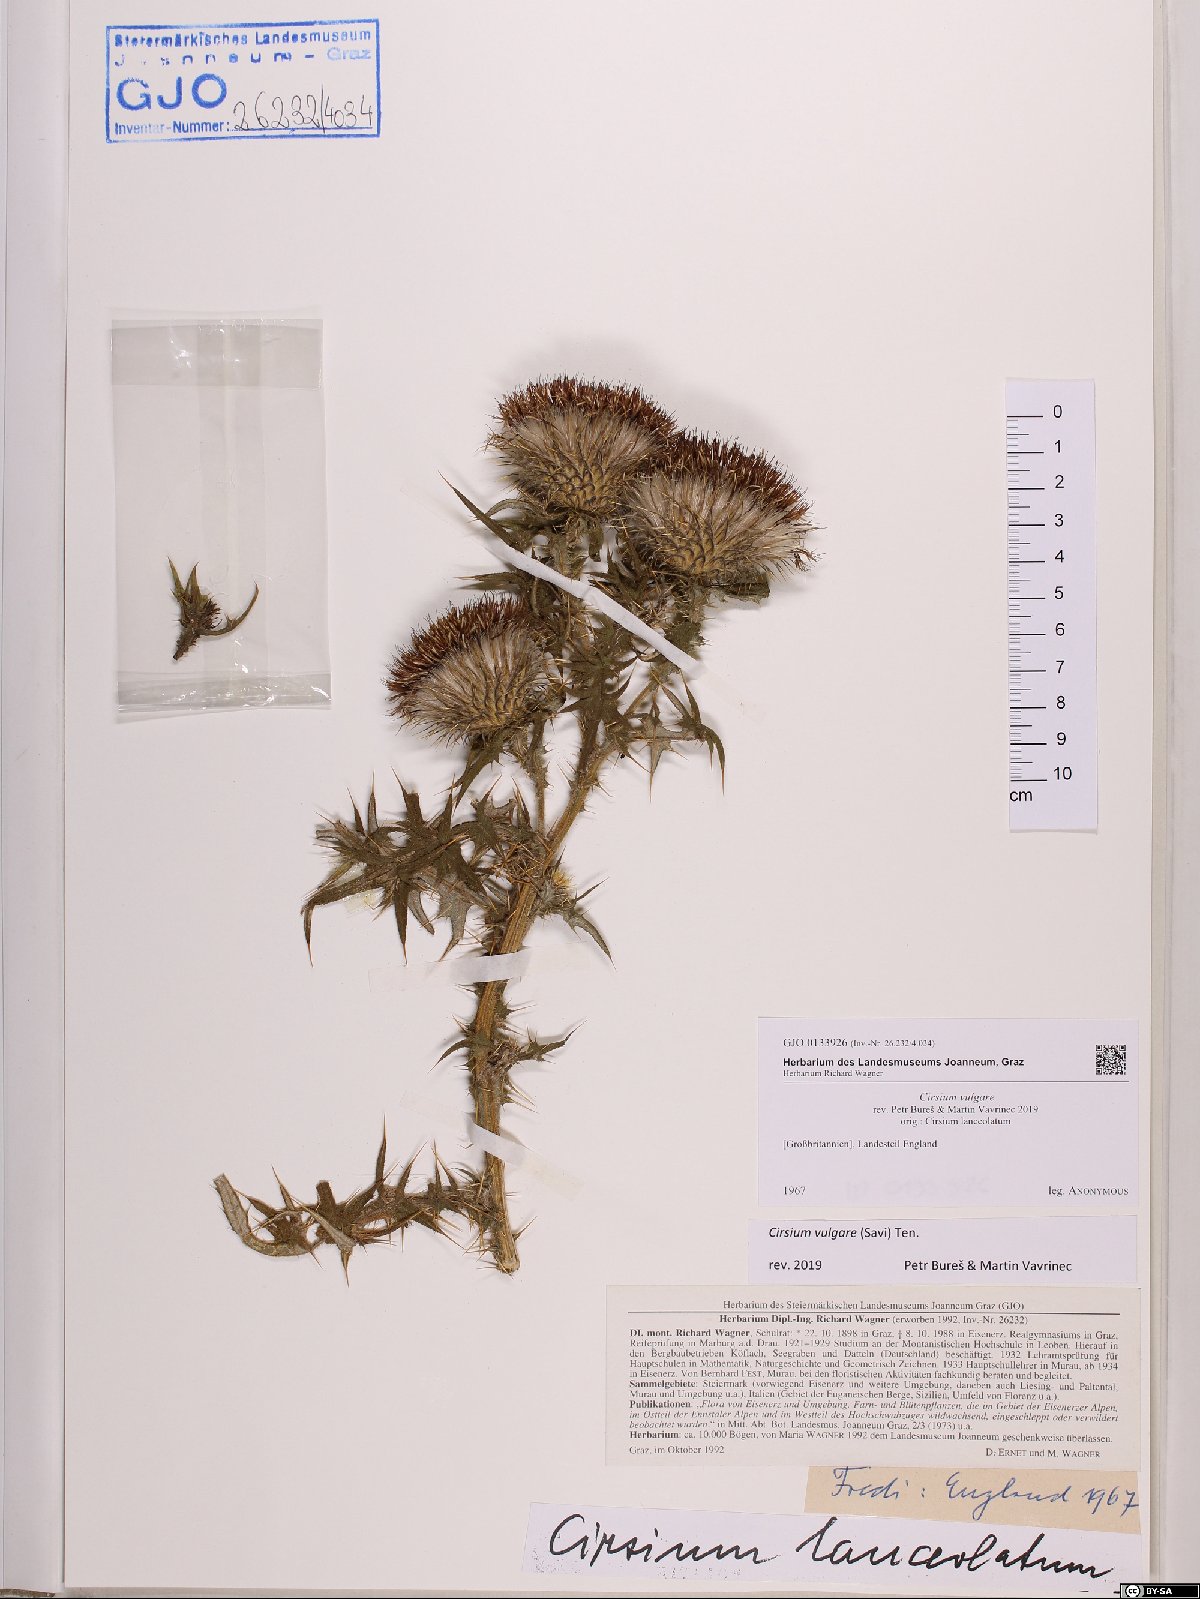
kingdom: Plantae
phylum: Tracheophyta
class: Magnoliopsida
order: Asterales
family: Asteraceae
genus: Cirsium
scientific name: Cirsium vulgare
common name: Bull thistle
